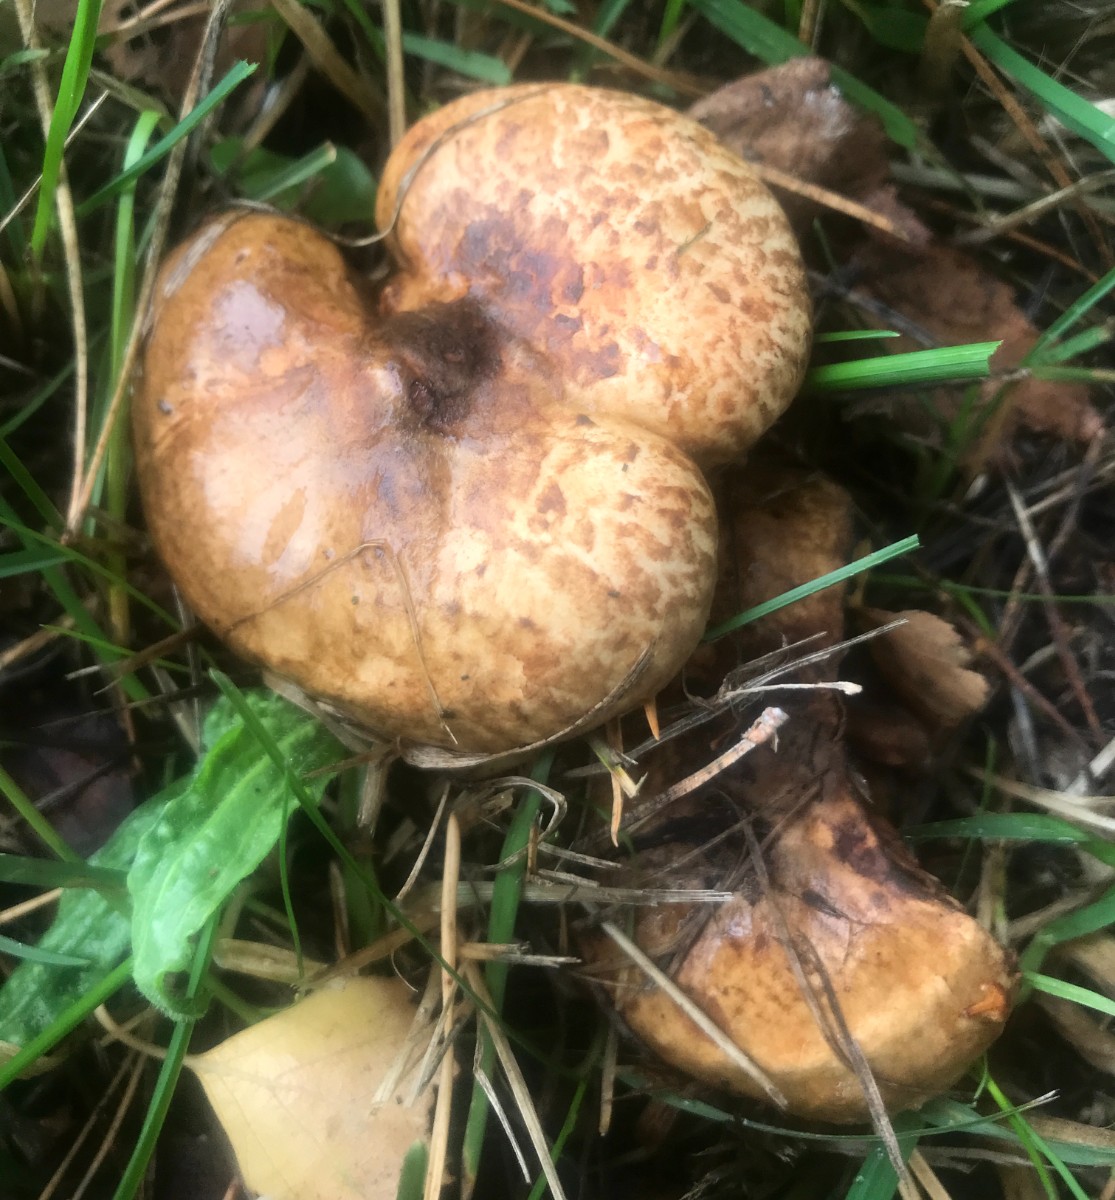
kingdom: Fungi
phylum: Basidiomycota
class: Agaricomycetes
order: Boletales
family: Paxillaceae
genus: Paxillus
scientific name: Paxillus involutus
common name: almindelig netbladhat
